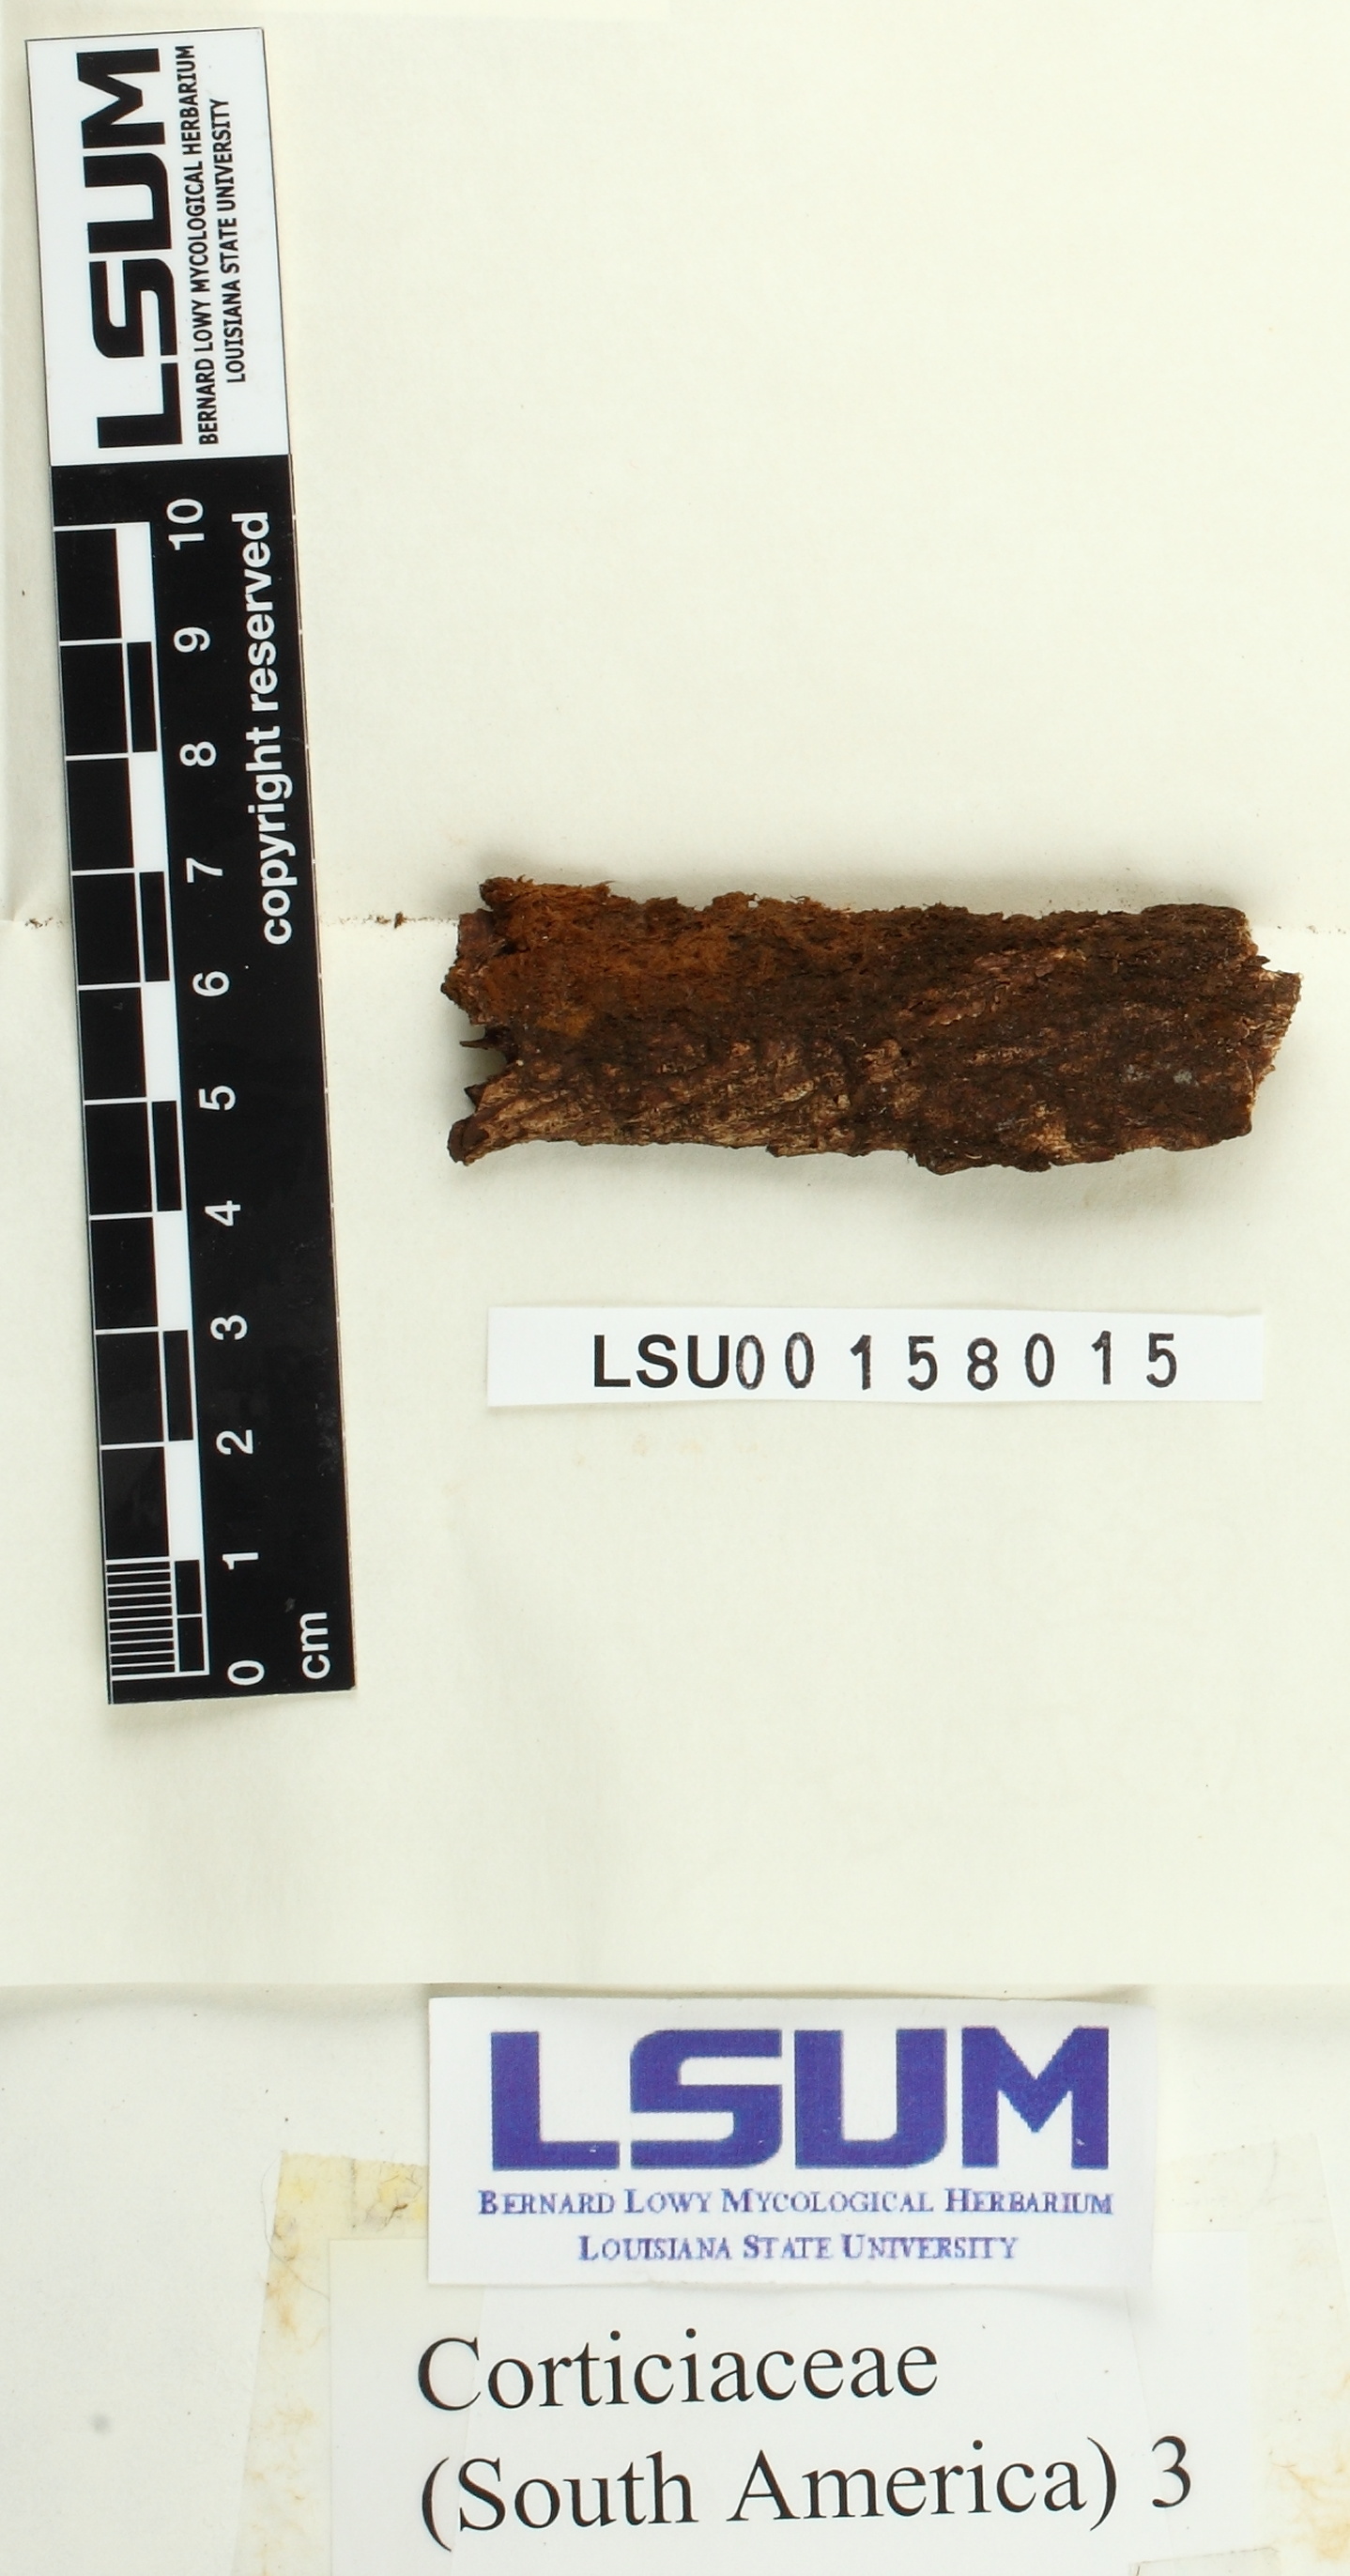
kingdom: Fungi
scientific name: Fungi
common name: Fungi
